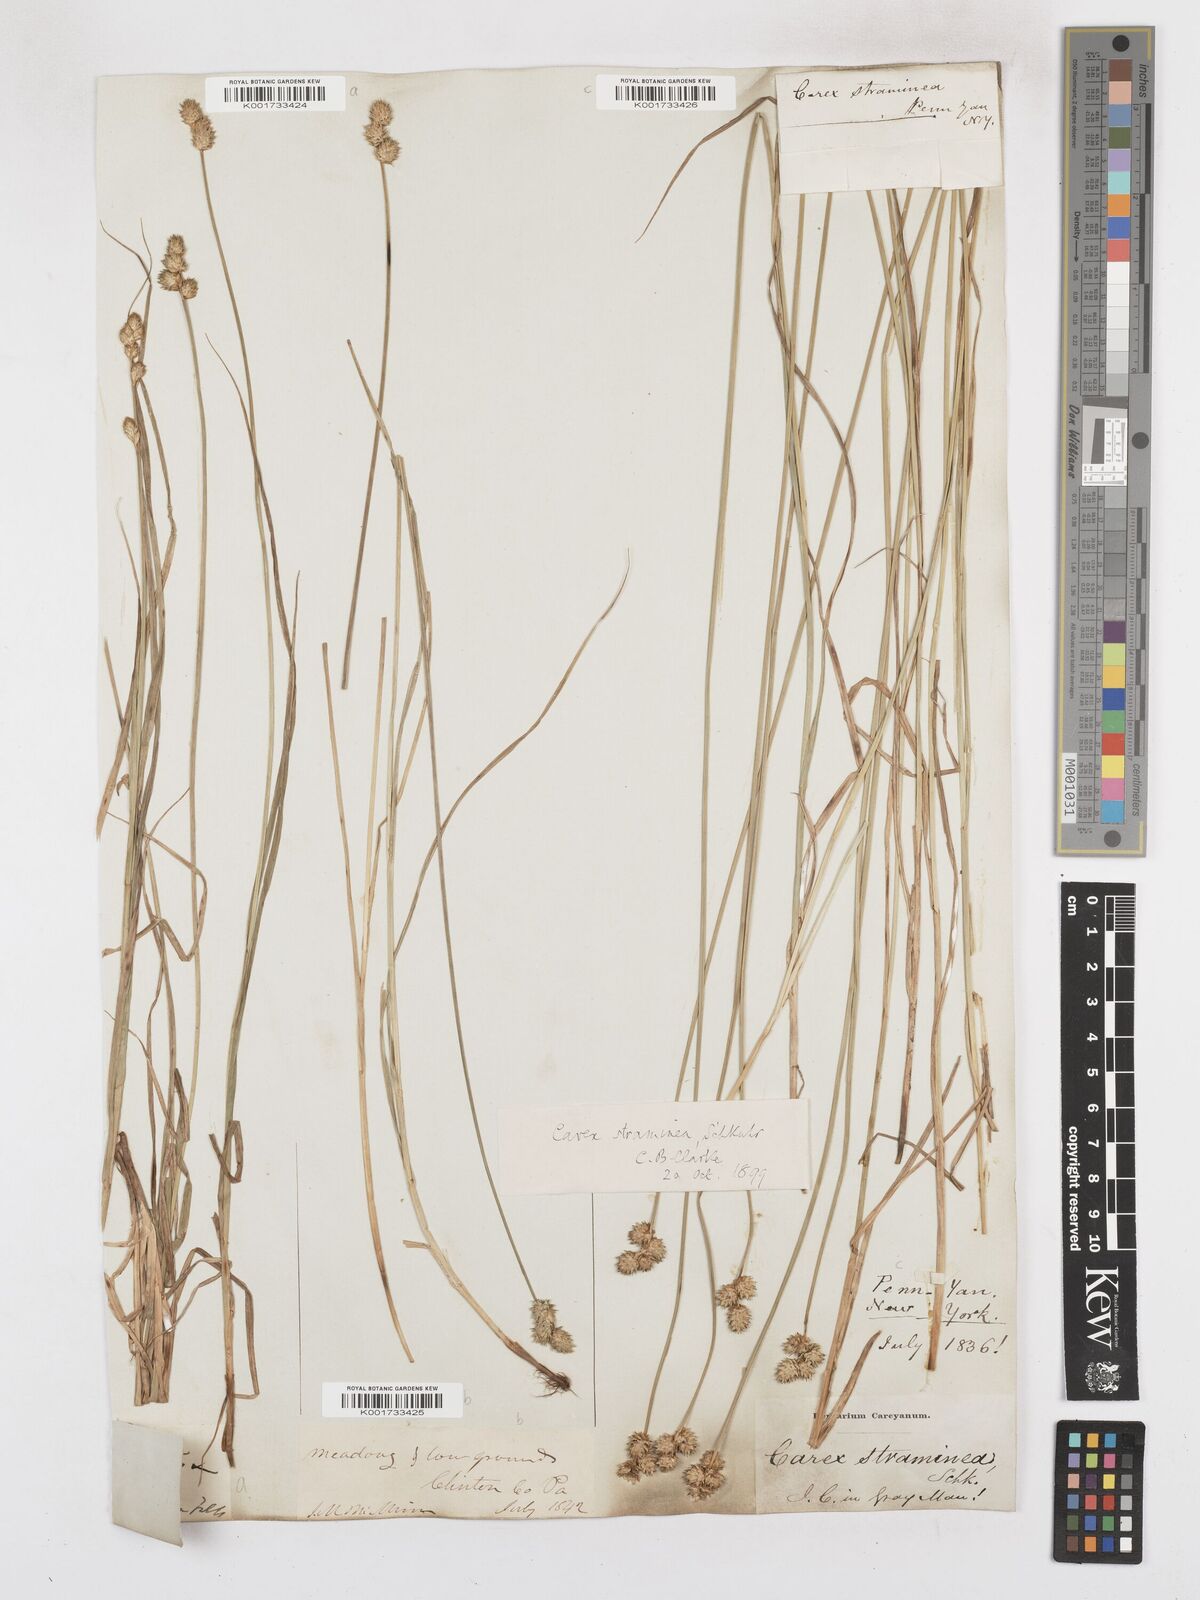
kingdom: Plantae
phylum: Tracheophyta
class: Liliopsida
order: Poales
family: Cyperaceae
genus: Carex
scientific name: Carex albolutescens
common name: Freenish white sedge
